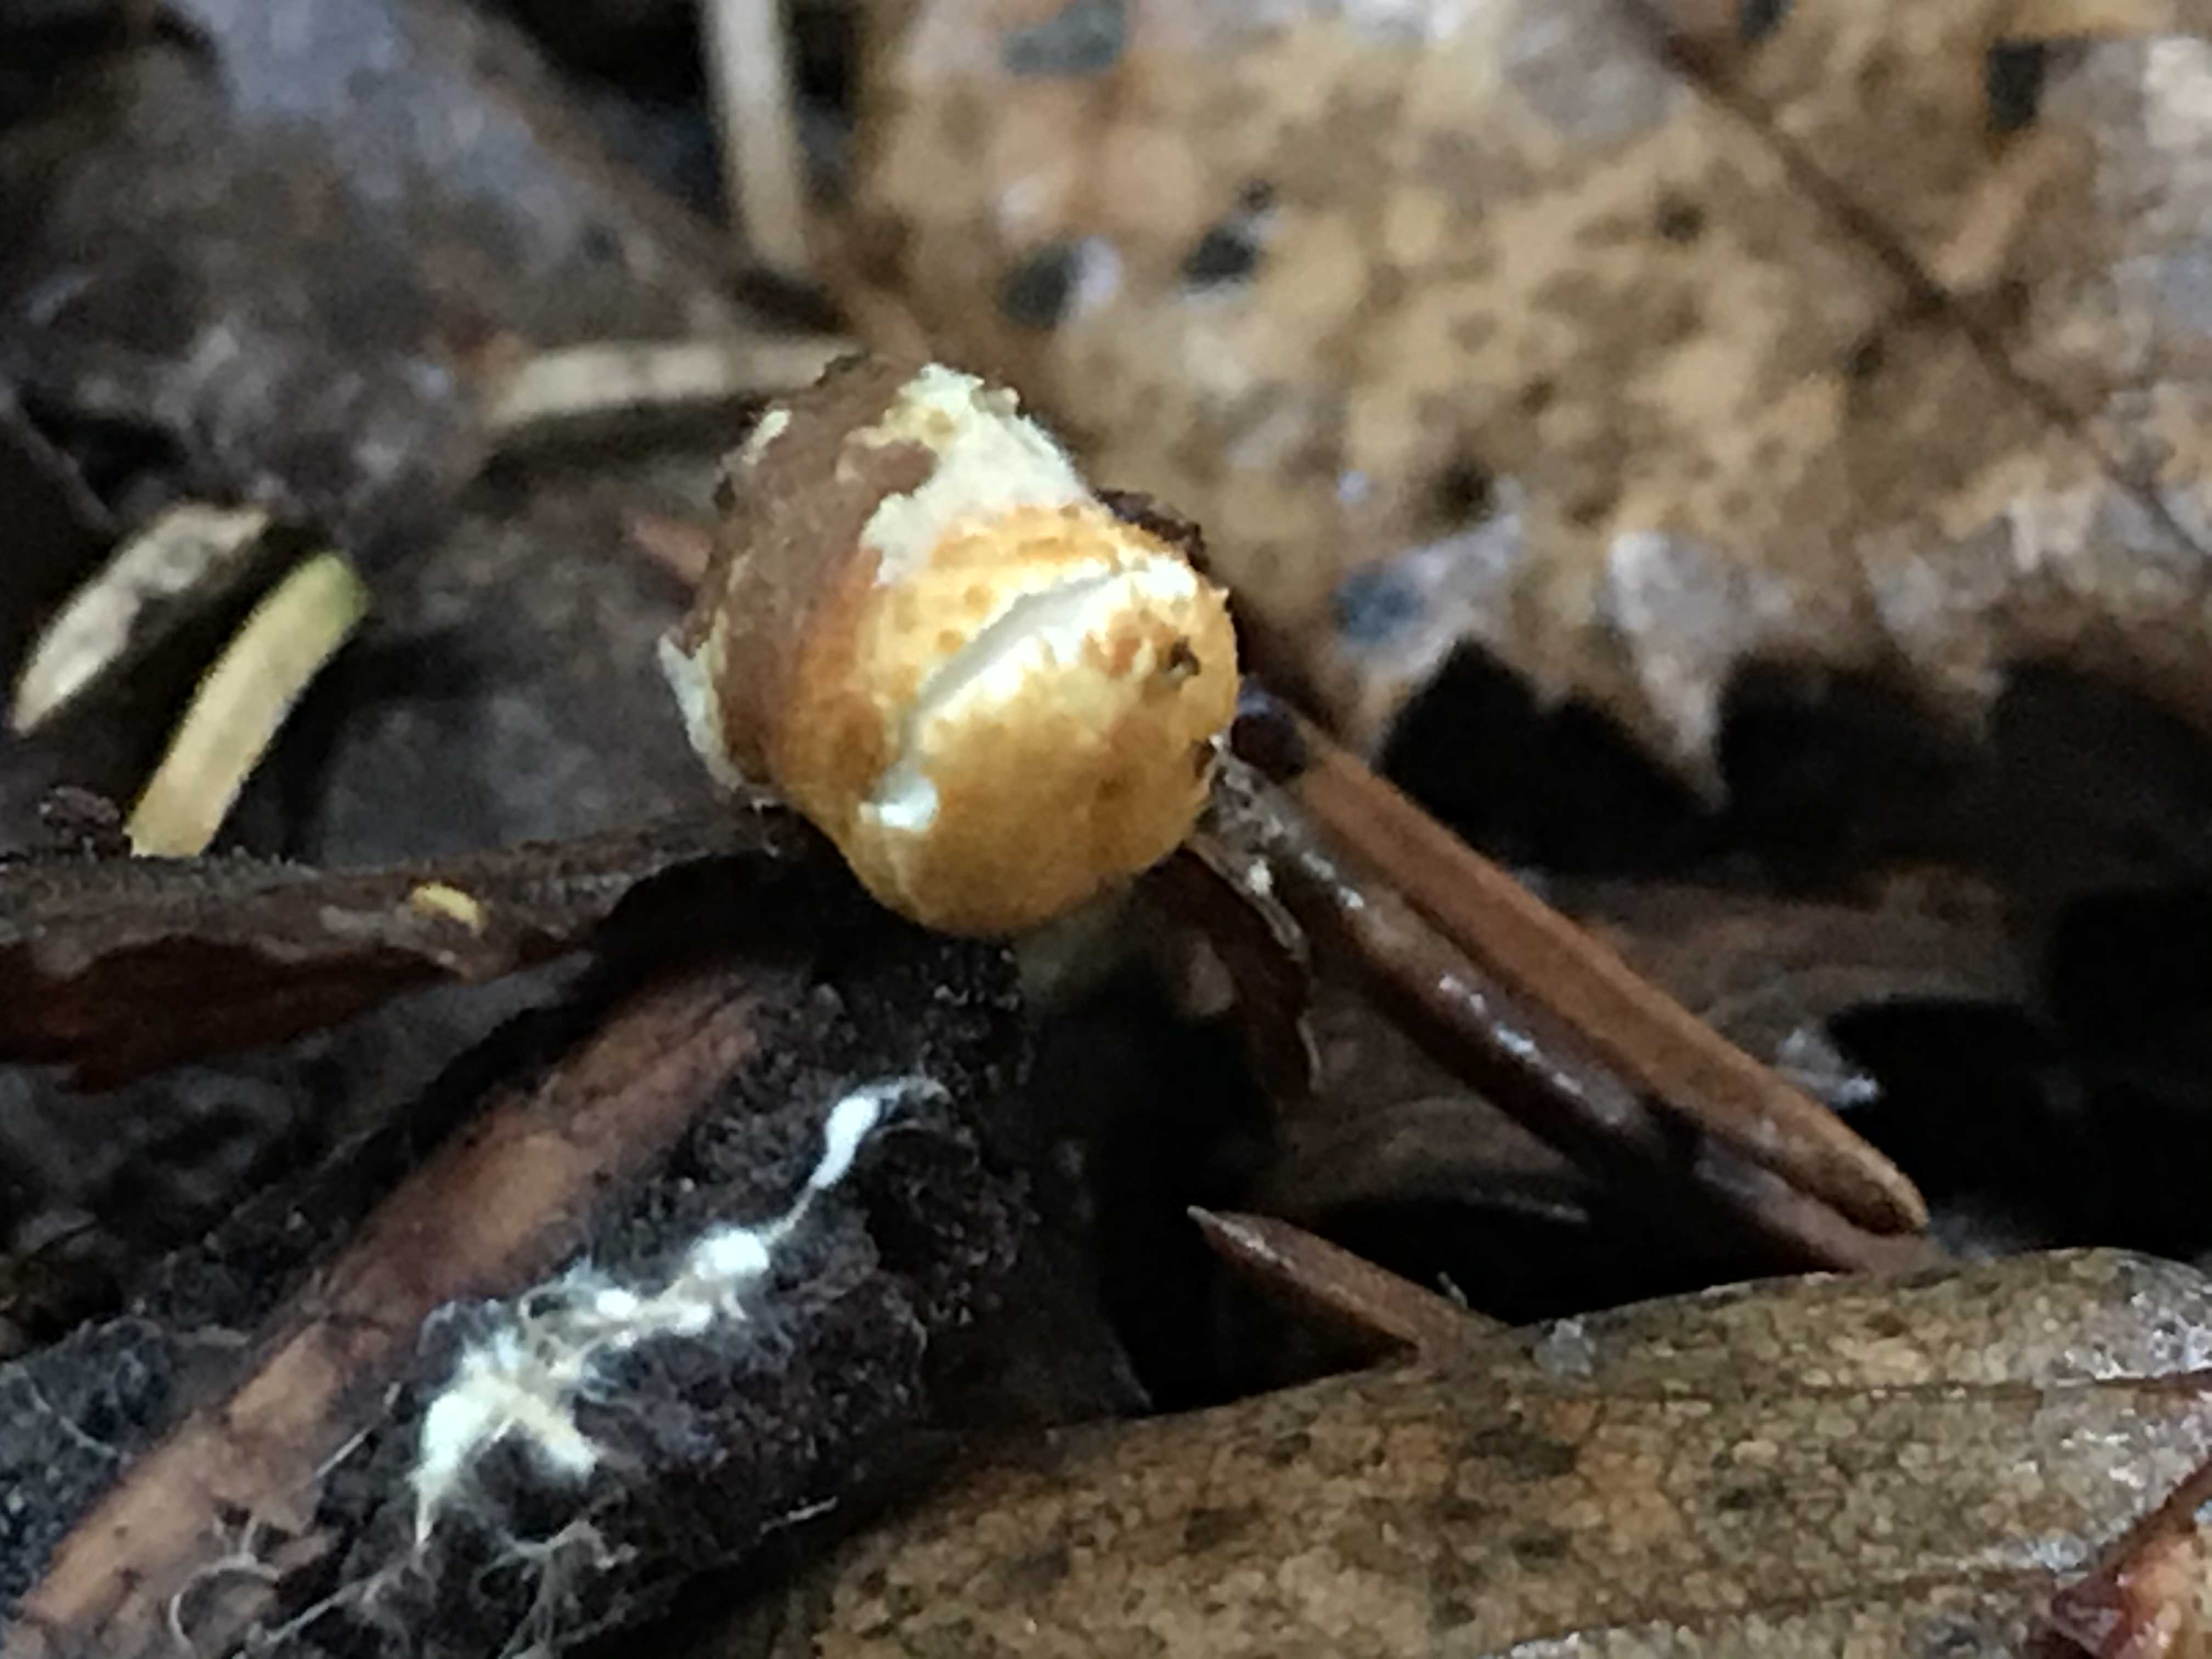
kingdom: Fungi
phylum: Basidiomycota
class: Agaricomycetes
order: Agaricales
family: Nidulariaceae
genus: Crucibulum
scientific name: Crucibulum crucibuliforme
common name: krukkesvamp
